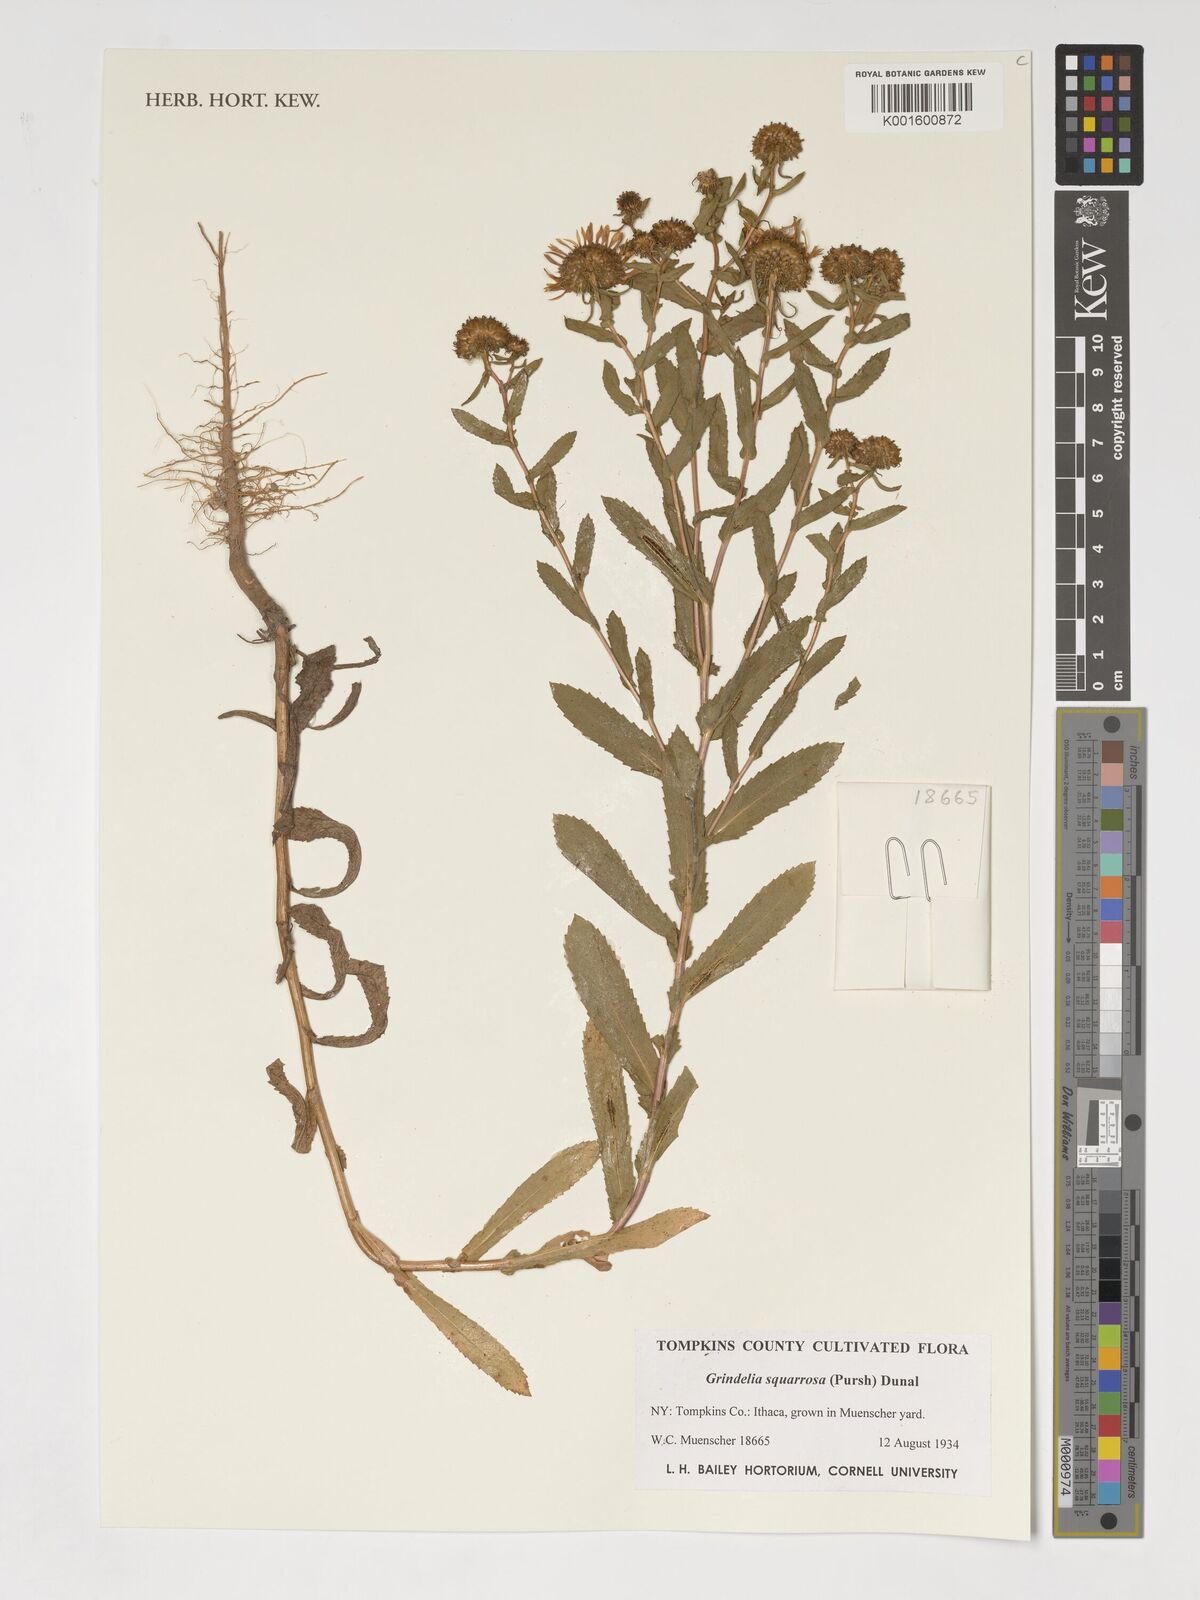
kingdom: Plantae
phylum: Tracheophyta
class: Magnoliopsida
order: Asterales
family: Asteraceae
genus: Grindelia
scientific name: Grindelia squarrosa
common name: Curly-cup gumweed
